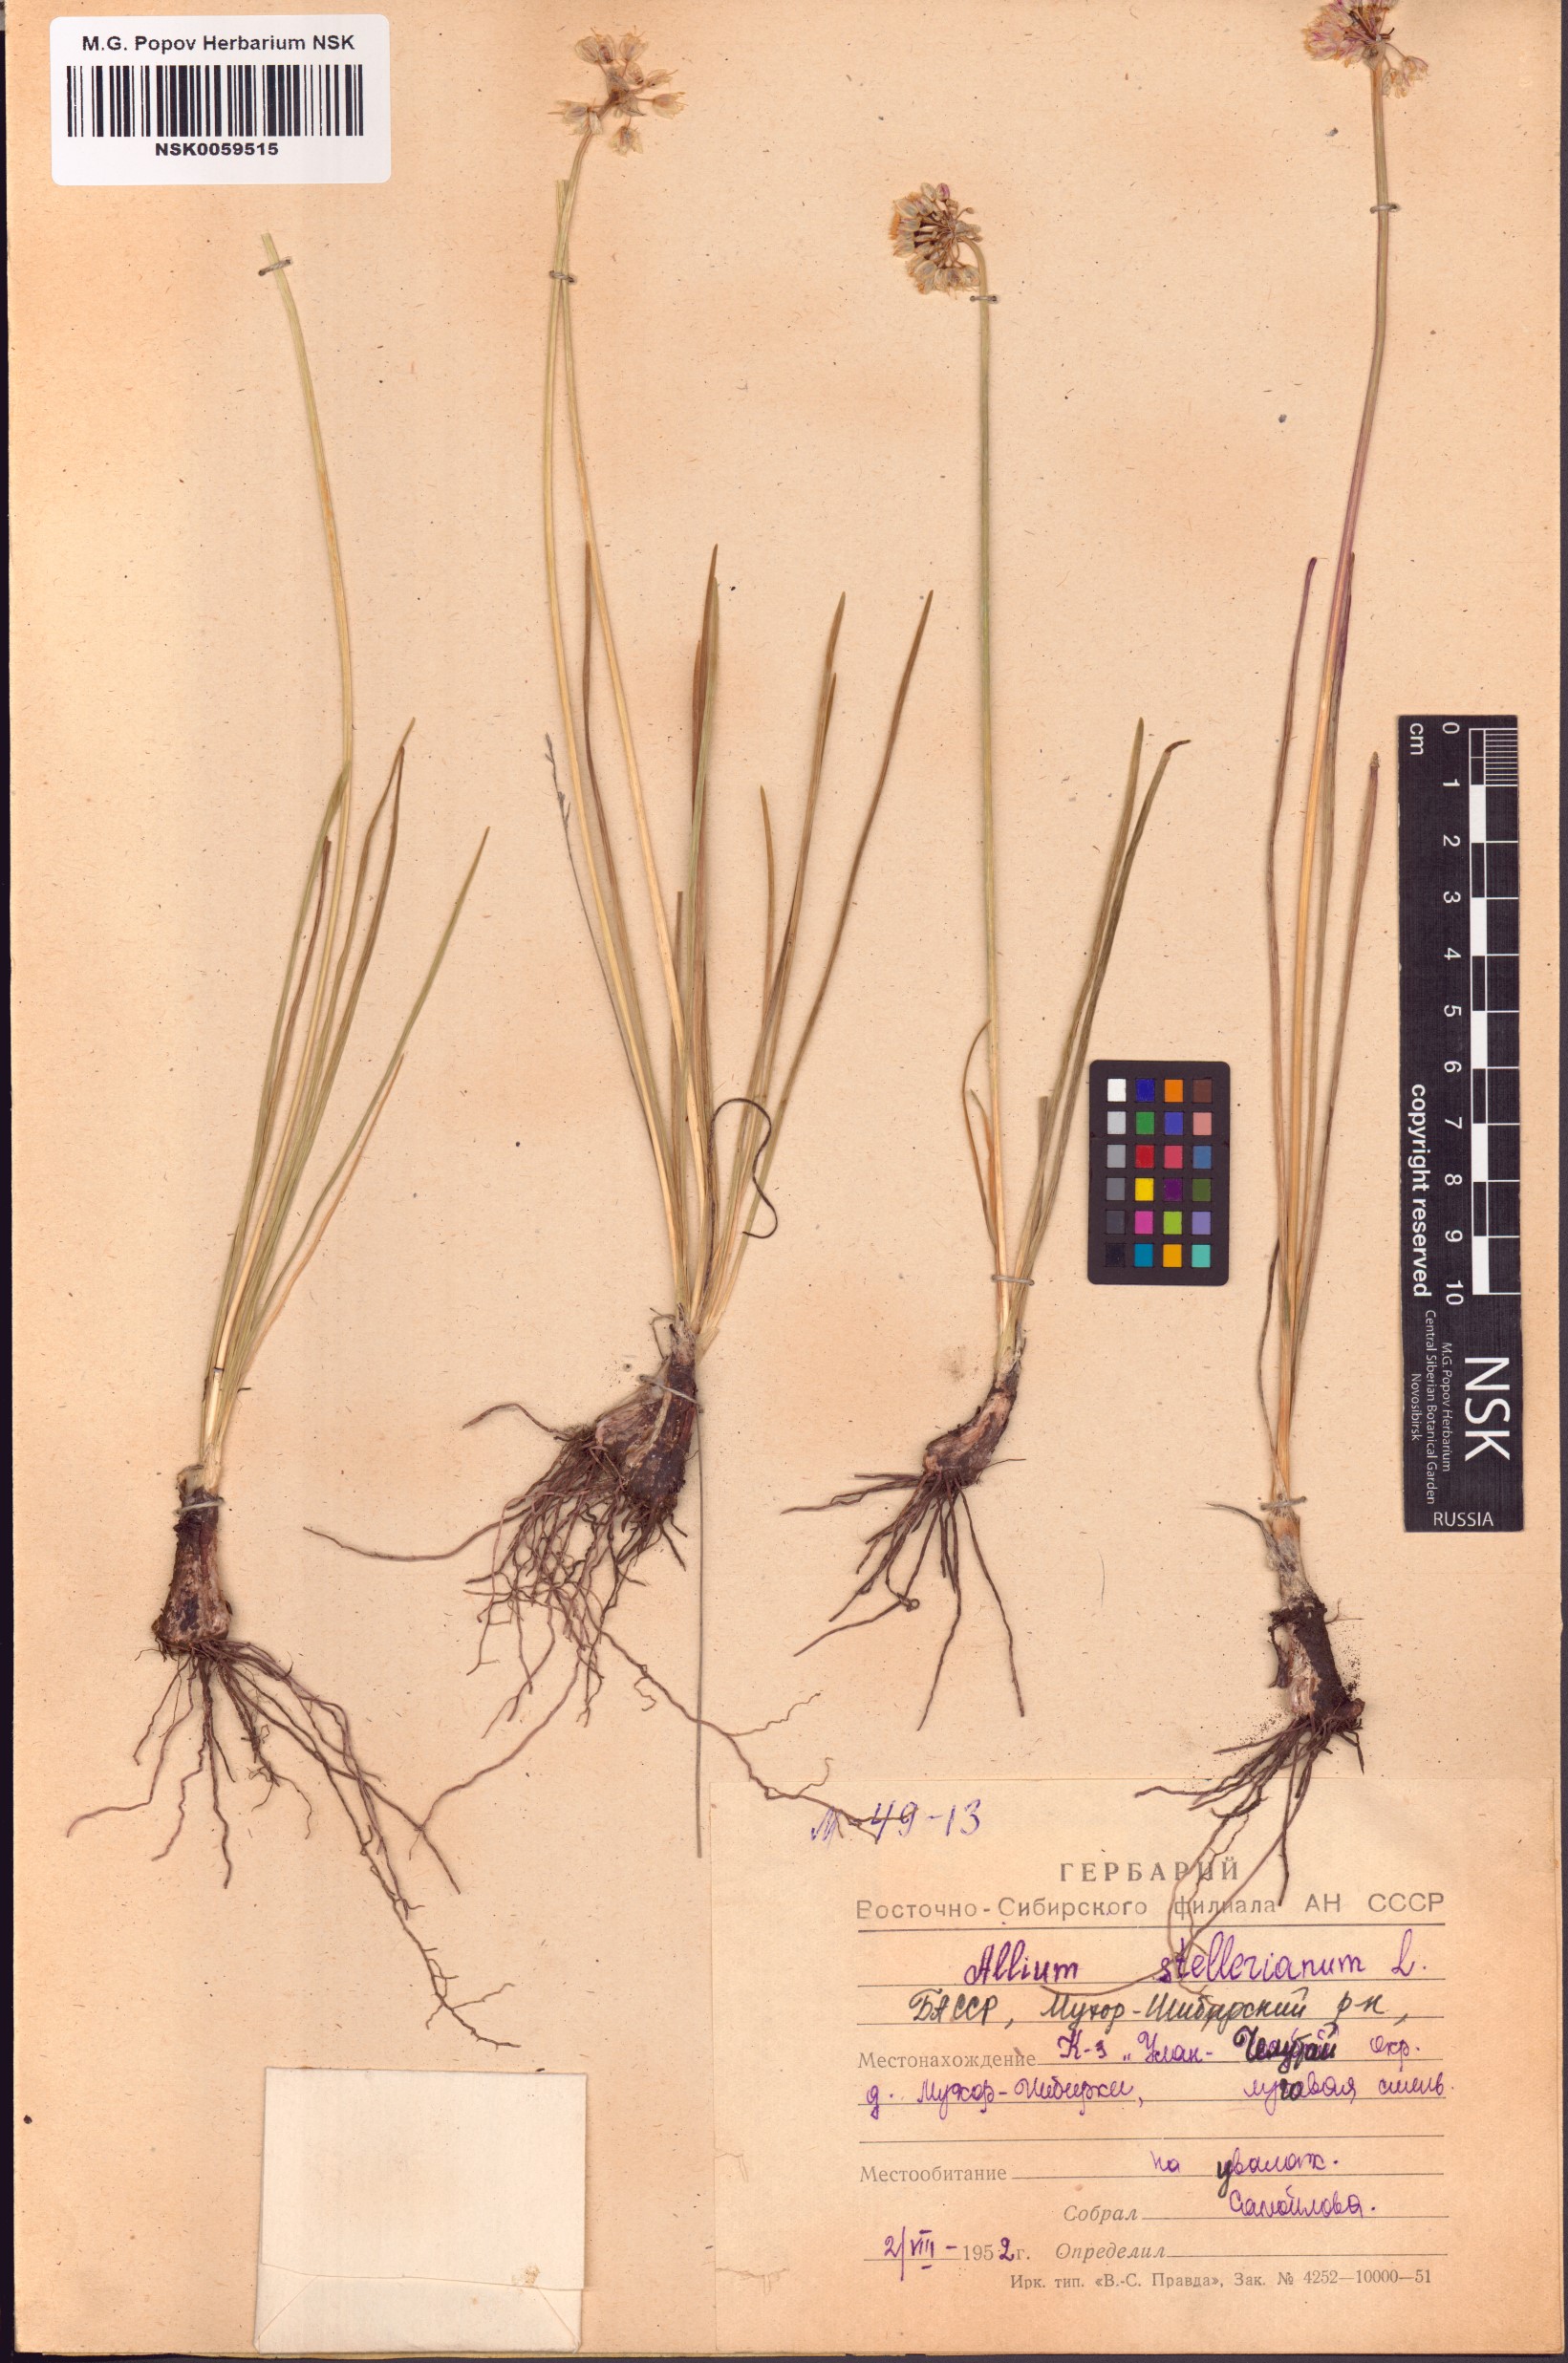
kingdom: Plantae
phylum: Tracheophyta
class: Liliopsida
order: Asparagales
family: Amaryllidaceae
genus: Allium
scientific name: Allium stellerianum
